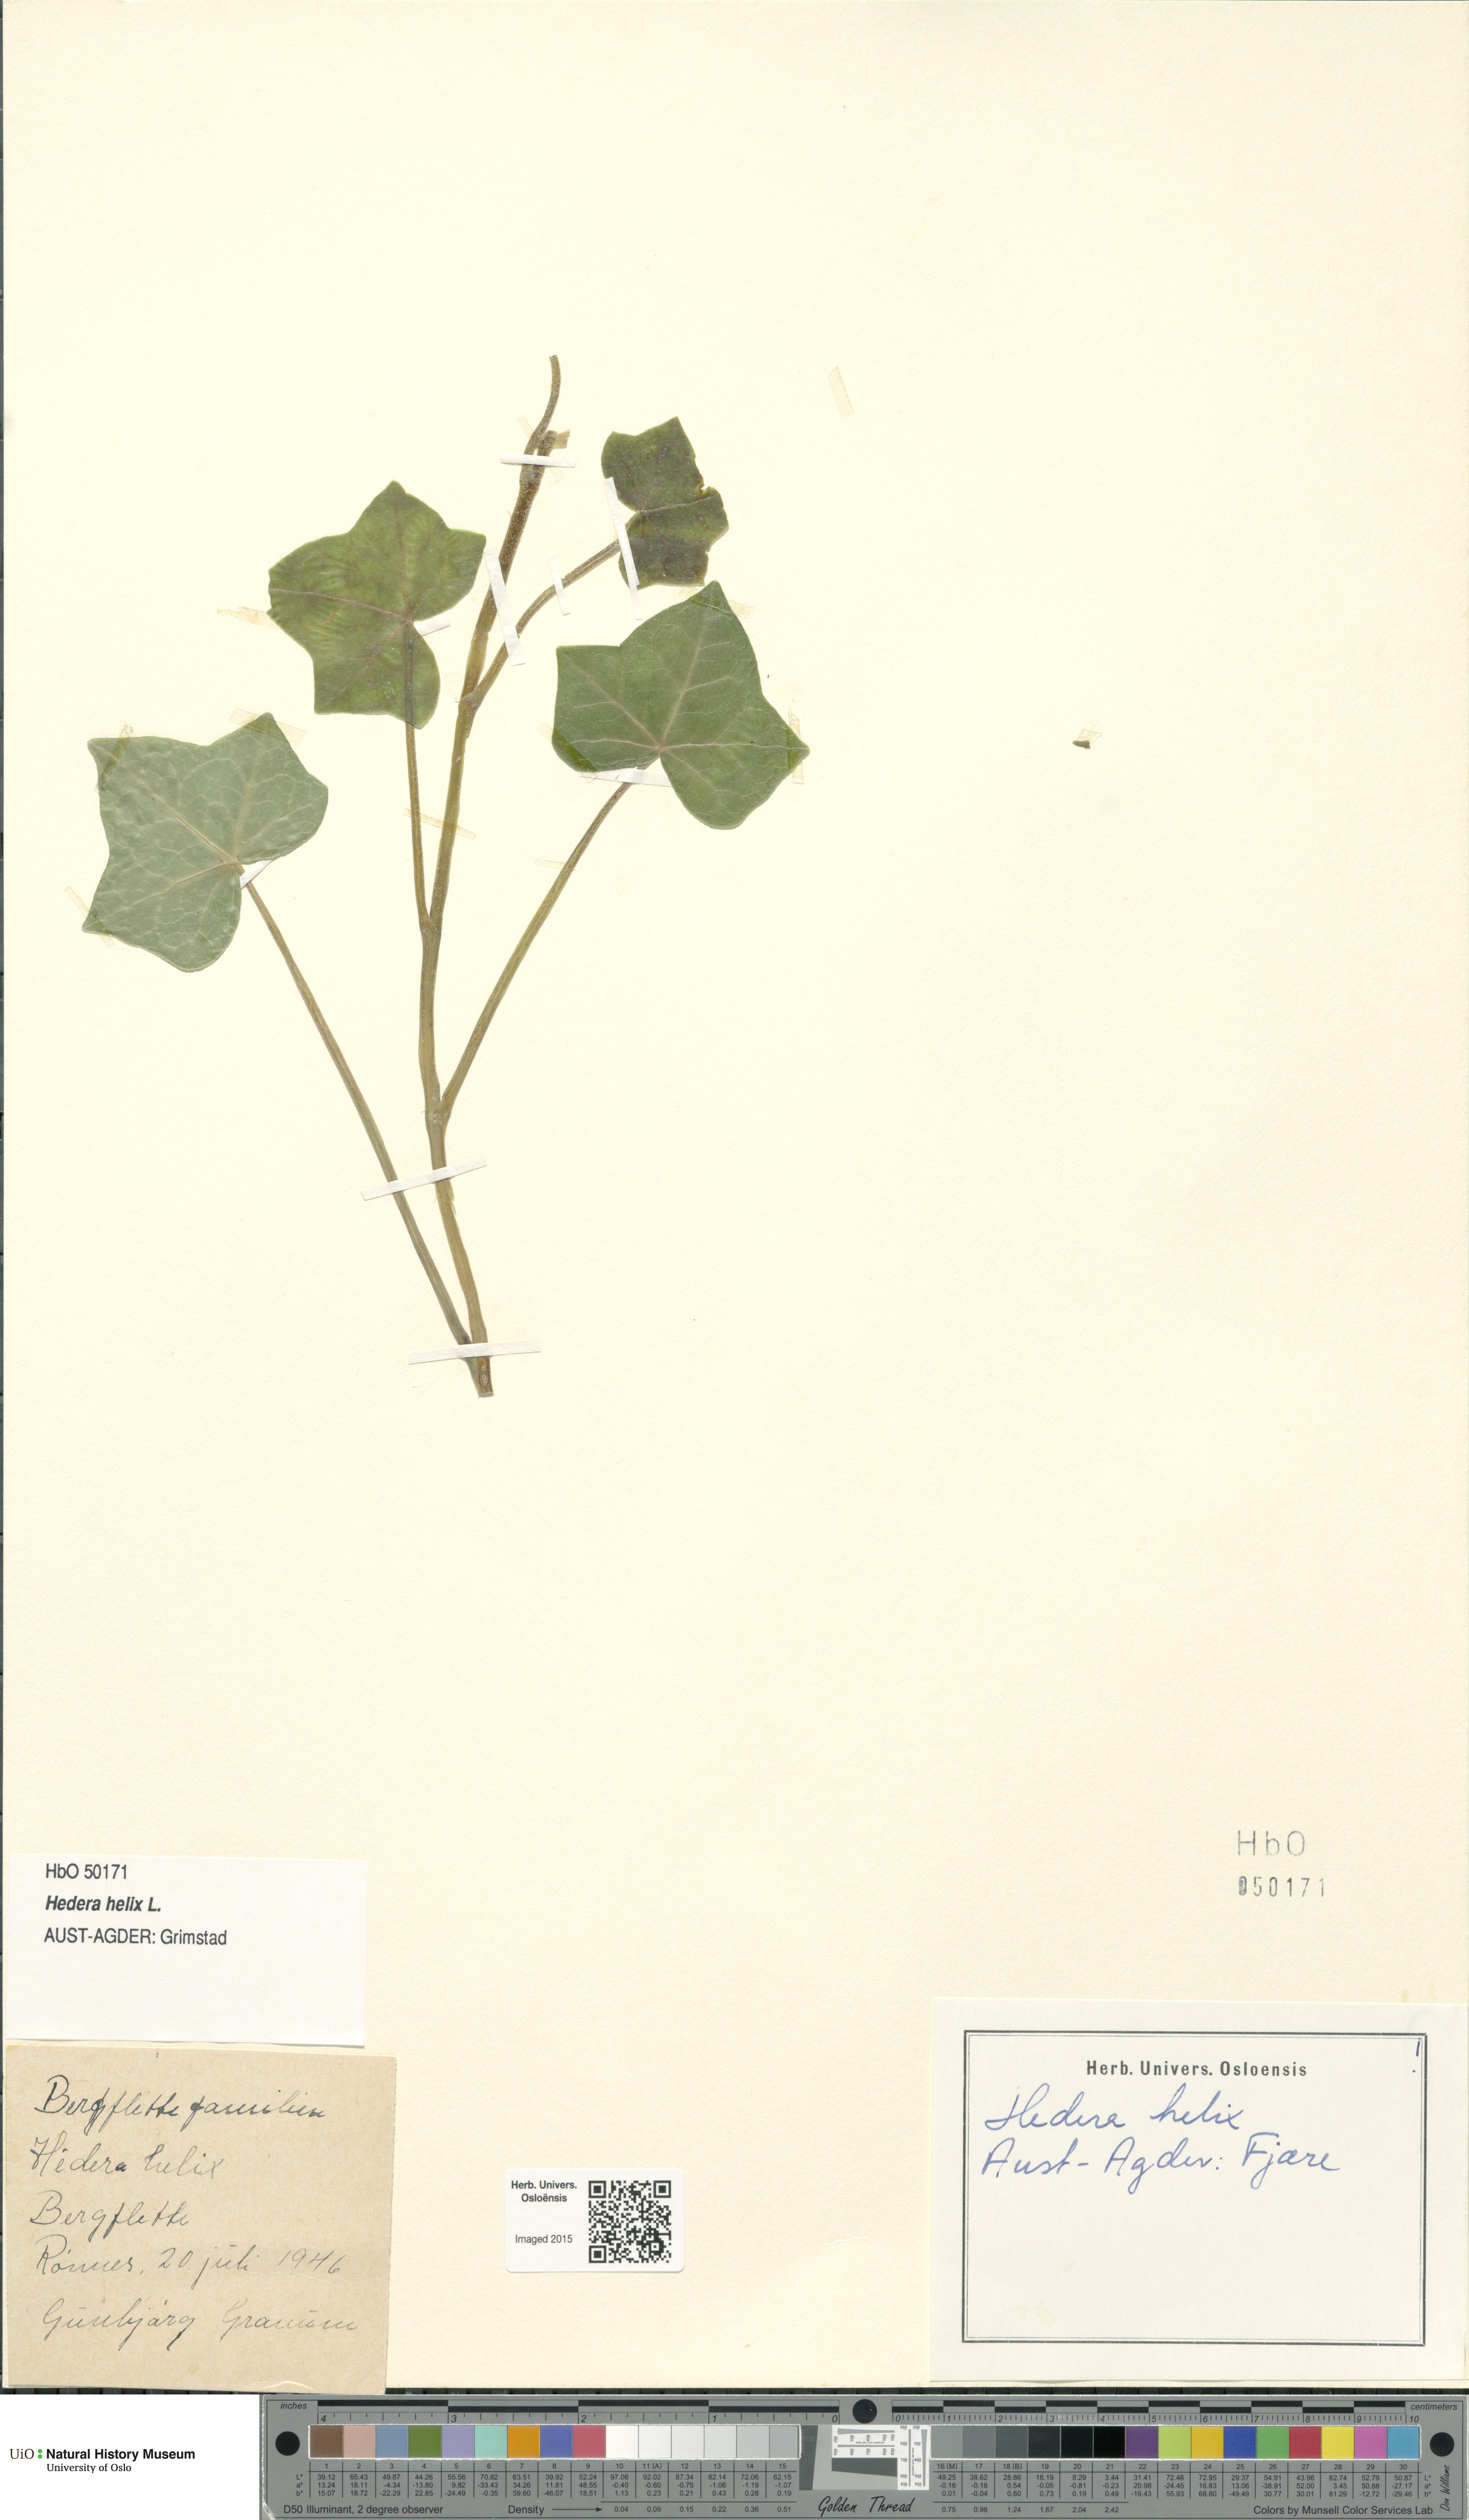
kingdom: Plantae
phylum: Tracheophyta
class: Magnoliopsida
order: Apiales
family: Araliaceae
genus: Hedera
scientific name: Hedera helix
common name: Ivy
